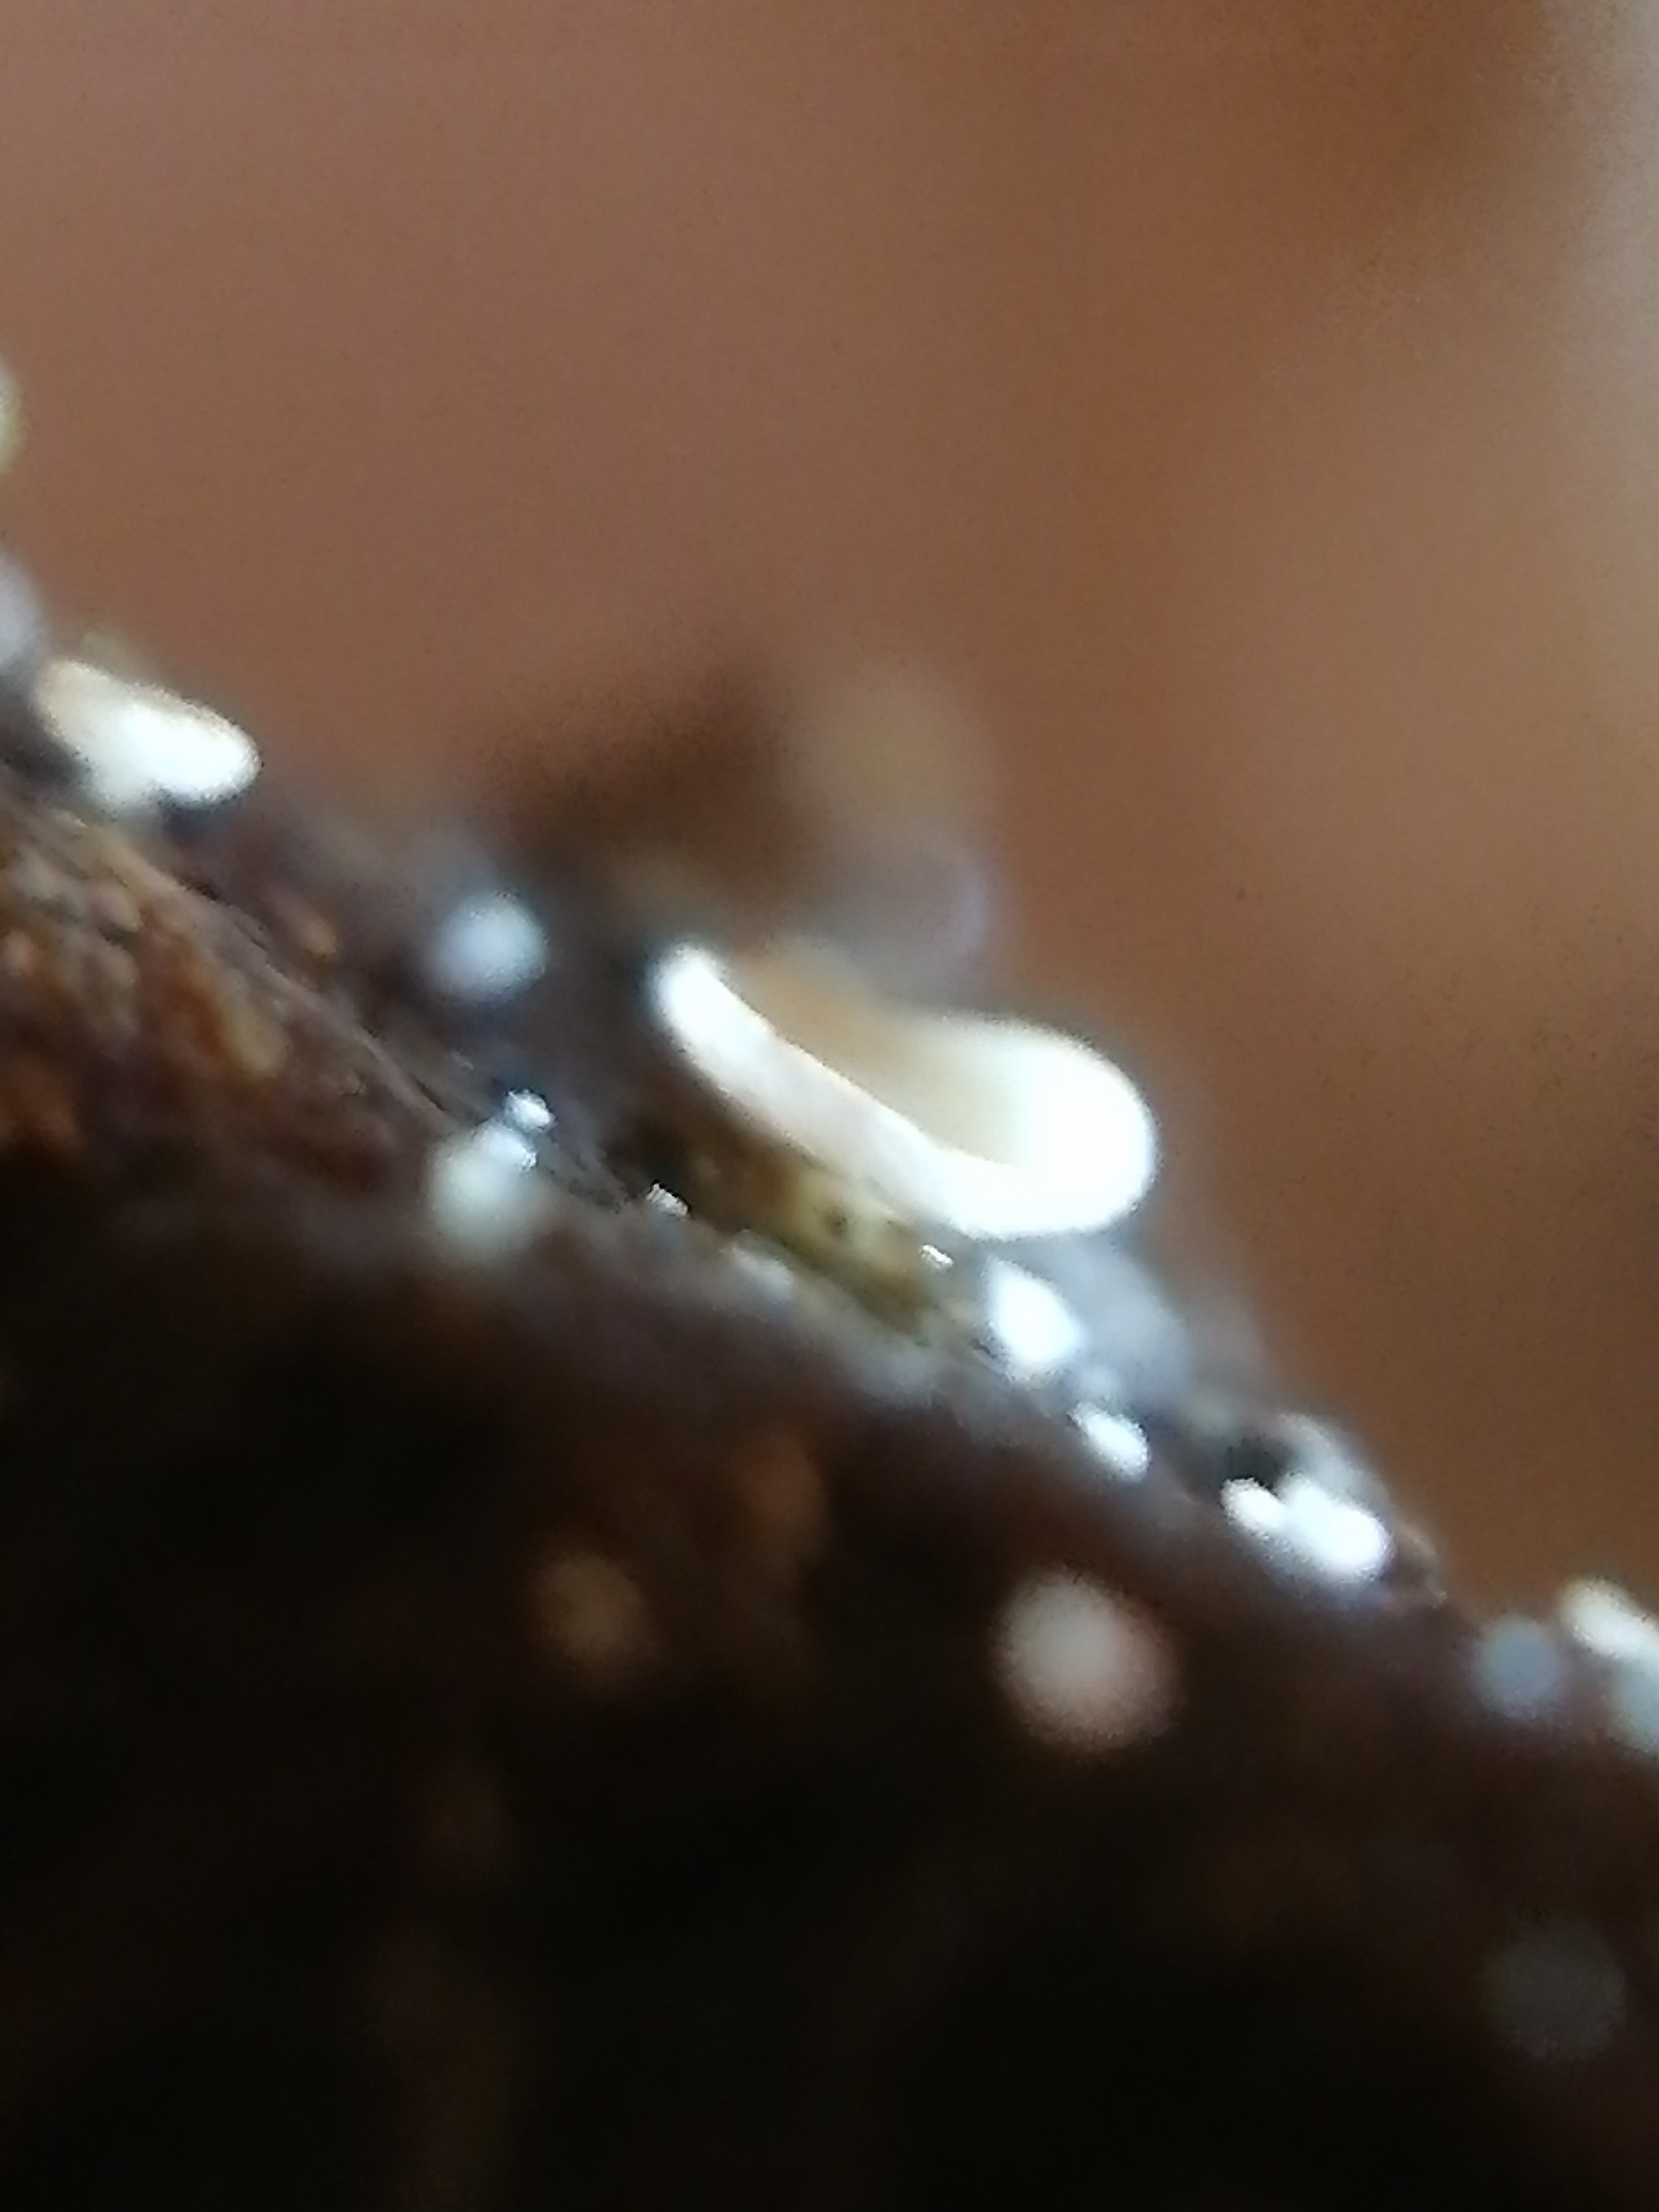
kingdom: Fungi
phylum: Ascomycota
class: Leotiomycetes
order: Helotiales
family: Lachnaceae
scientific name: Lachnaceae
